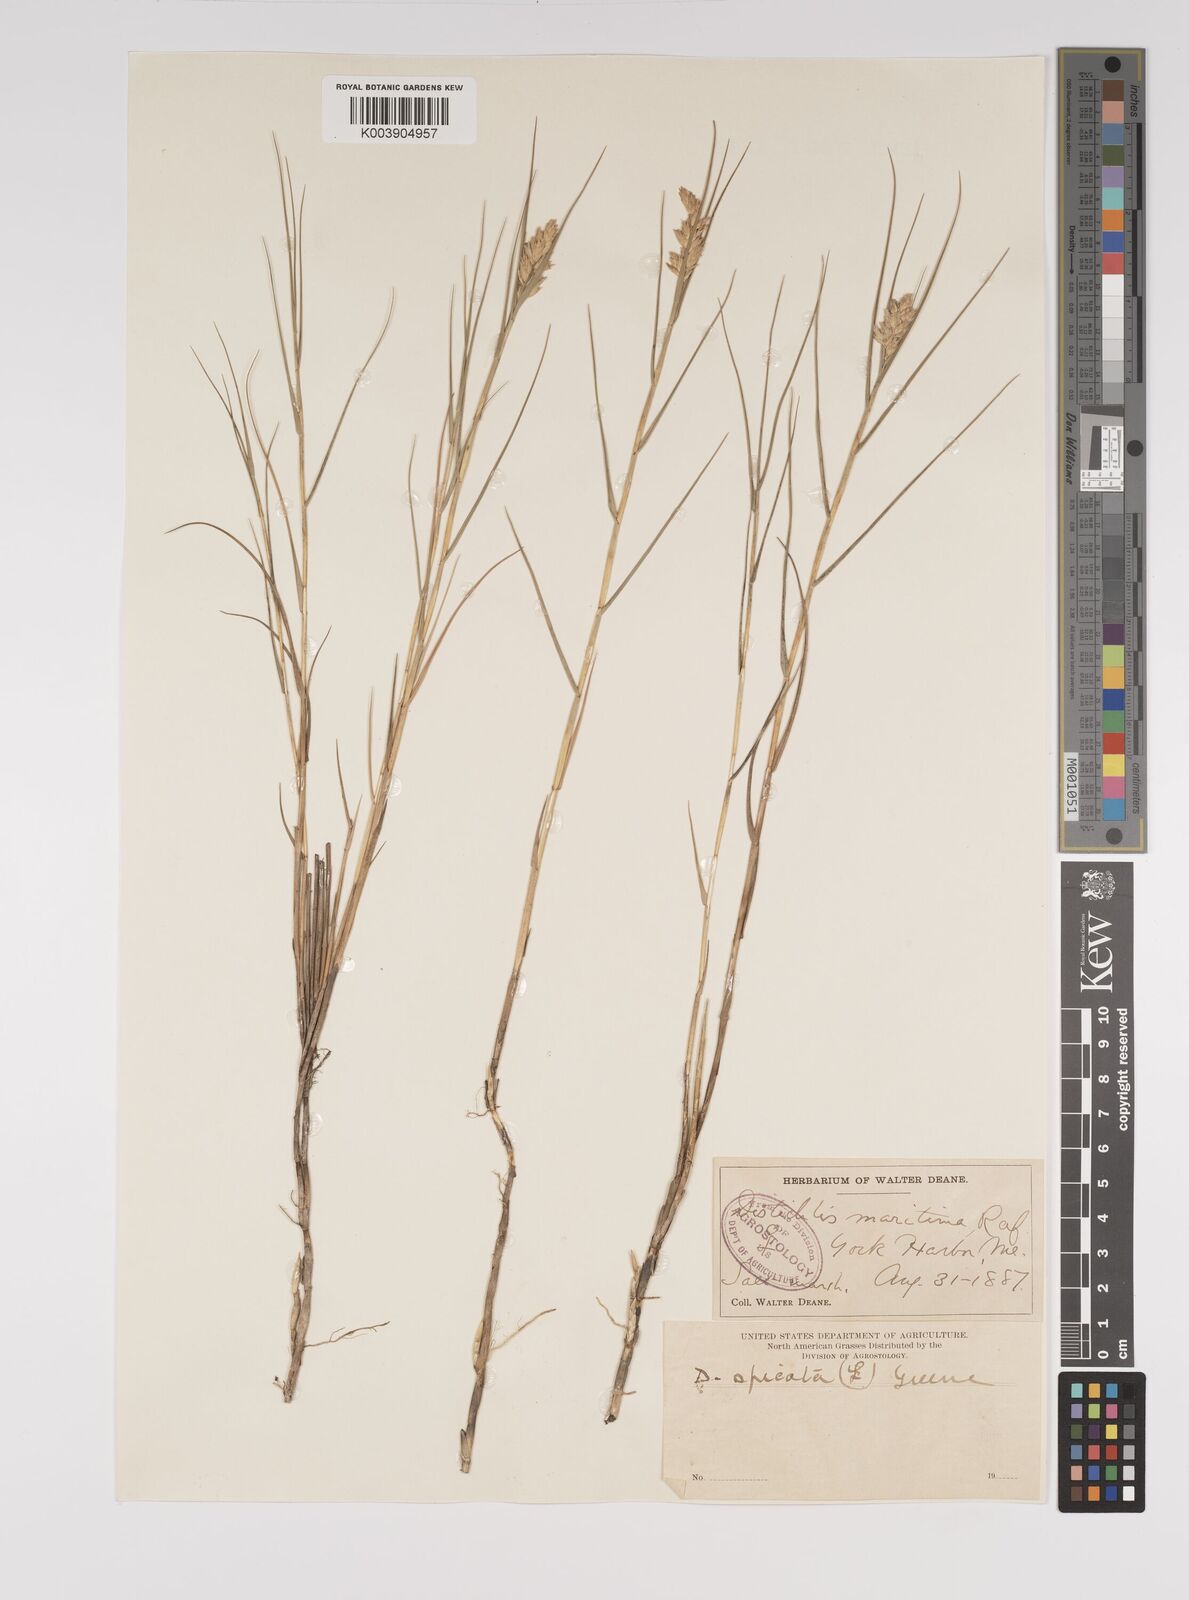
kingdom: Plantae
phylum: Tracheophyta
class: Liliopsida
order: Poales
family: Poaceae
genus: Distichlis
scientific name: Distichlis spicata
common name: Saltgrass
